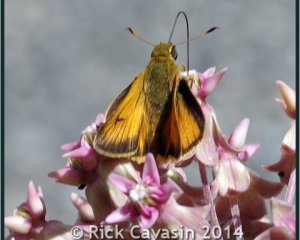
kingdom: Animalia
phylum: Arthropoda
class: Insecta
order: Lepidoptera
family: Hesperiidae
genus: Atrytone
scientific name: Atrytone delaware
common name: Delaware Skipper
